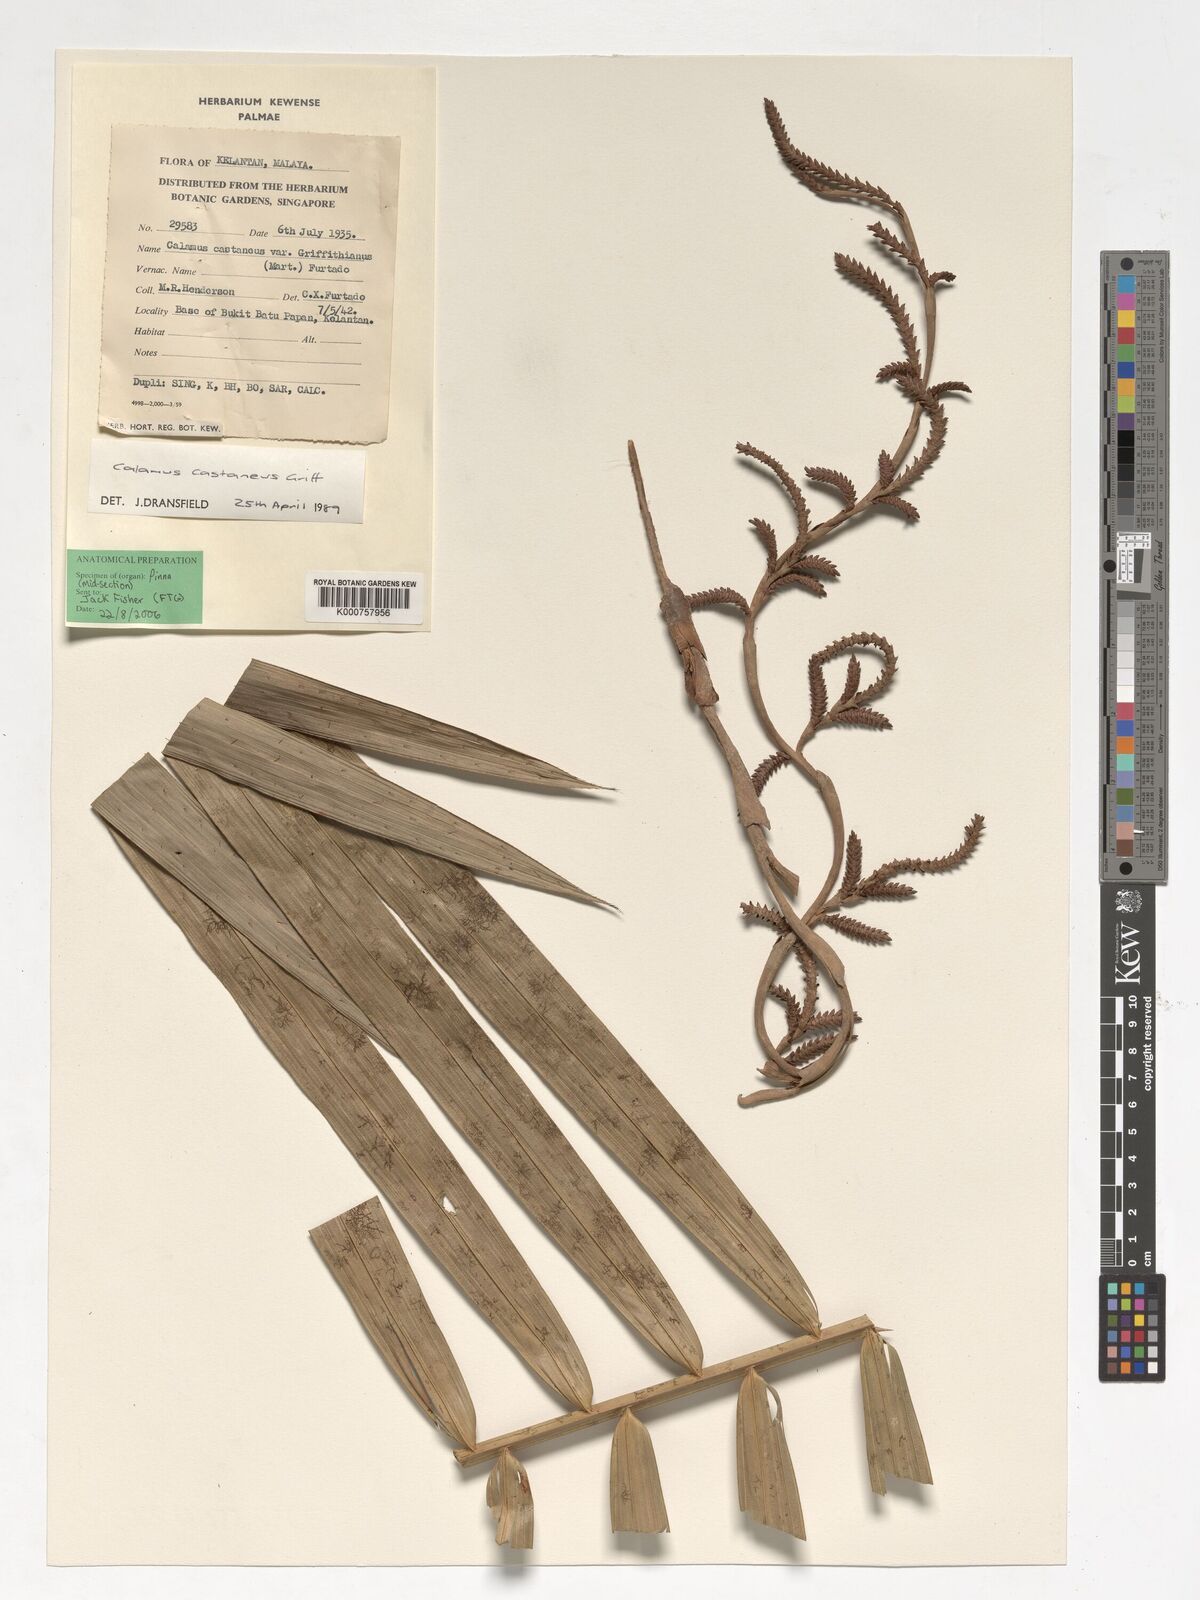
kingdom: Plantae
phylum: Tracheophyta
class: Liliopsida
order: Arecales
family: Arecaceae
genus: Calamus
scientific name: Calamus castaneus
